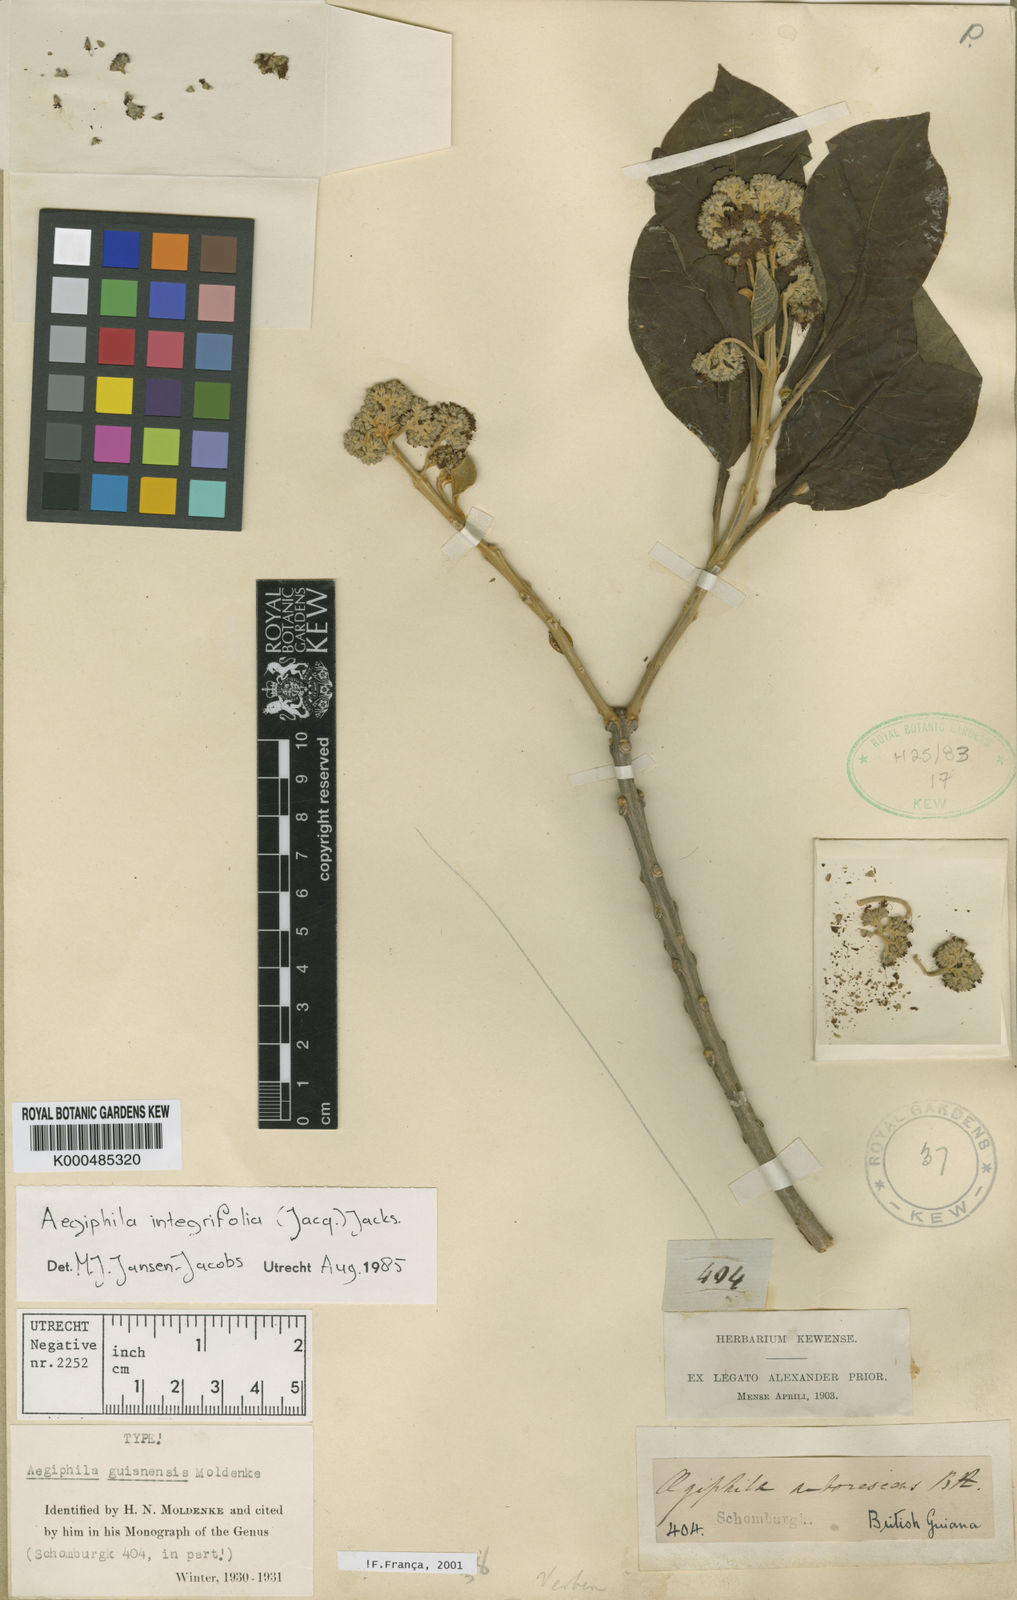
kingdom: Plantae
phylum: Tracheophyta
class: Magnoliopsida
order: Lamiales
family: Lamiaceae
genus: Aegiphila
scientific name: Aegiphila integrifolia
